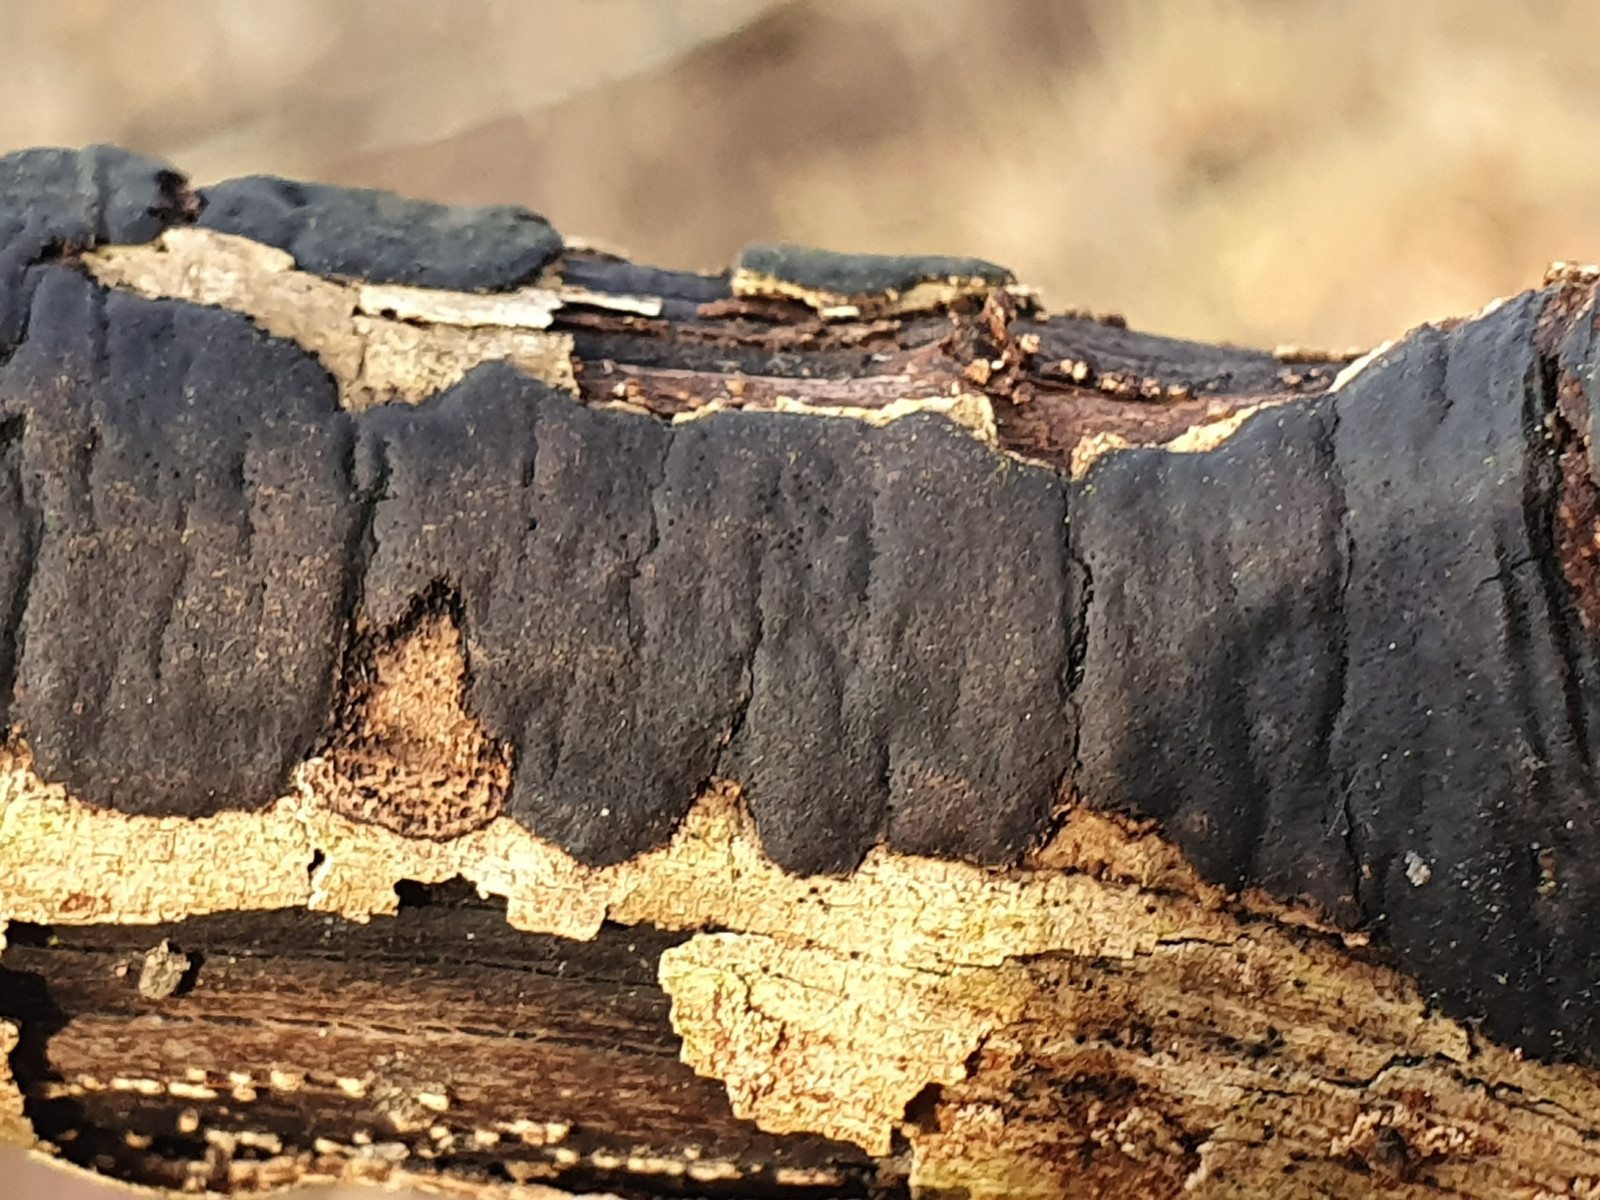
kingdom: Fungi
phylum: Ascomycota
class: Sordariomycetes
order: Xylariales
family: Diatrypaceae
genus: Diatrype
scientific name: Diatrype decorticata
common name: barksprænger-kulskorpe
